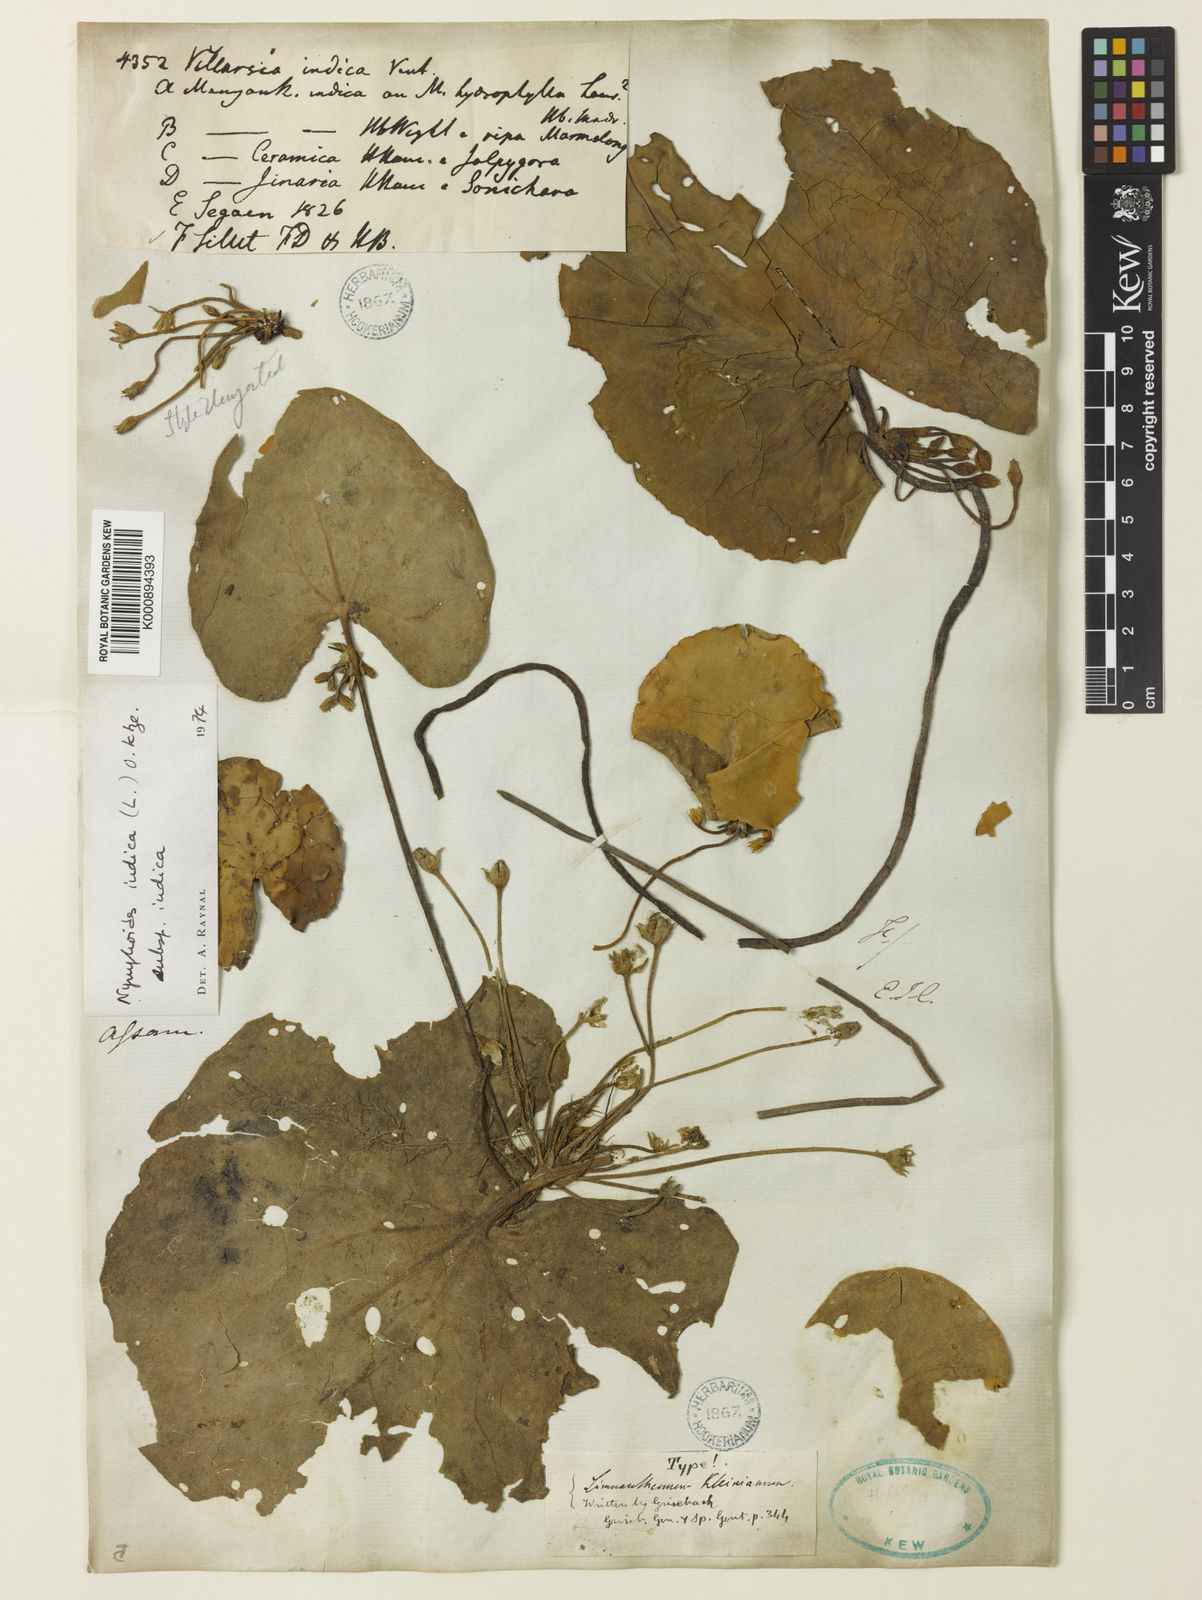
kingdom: Plantae
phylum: Tracheophyta
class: Magnoliopsida
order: Asterales
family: Menyanthaceae
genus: Nymphoides
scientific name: Nymphoides indica
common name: Water-snowflake
